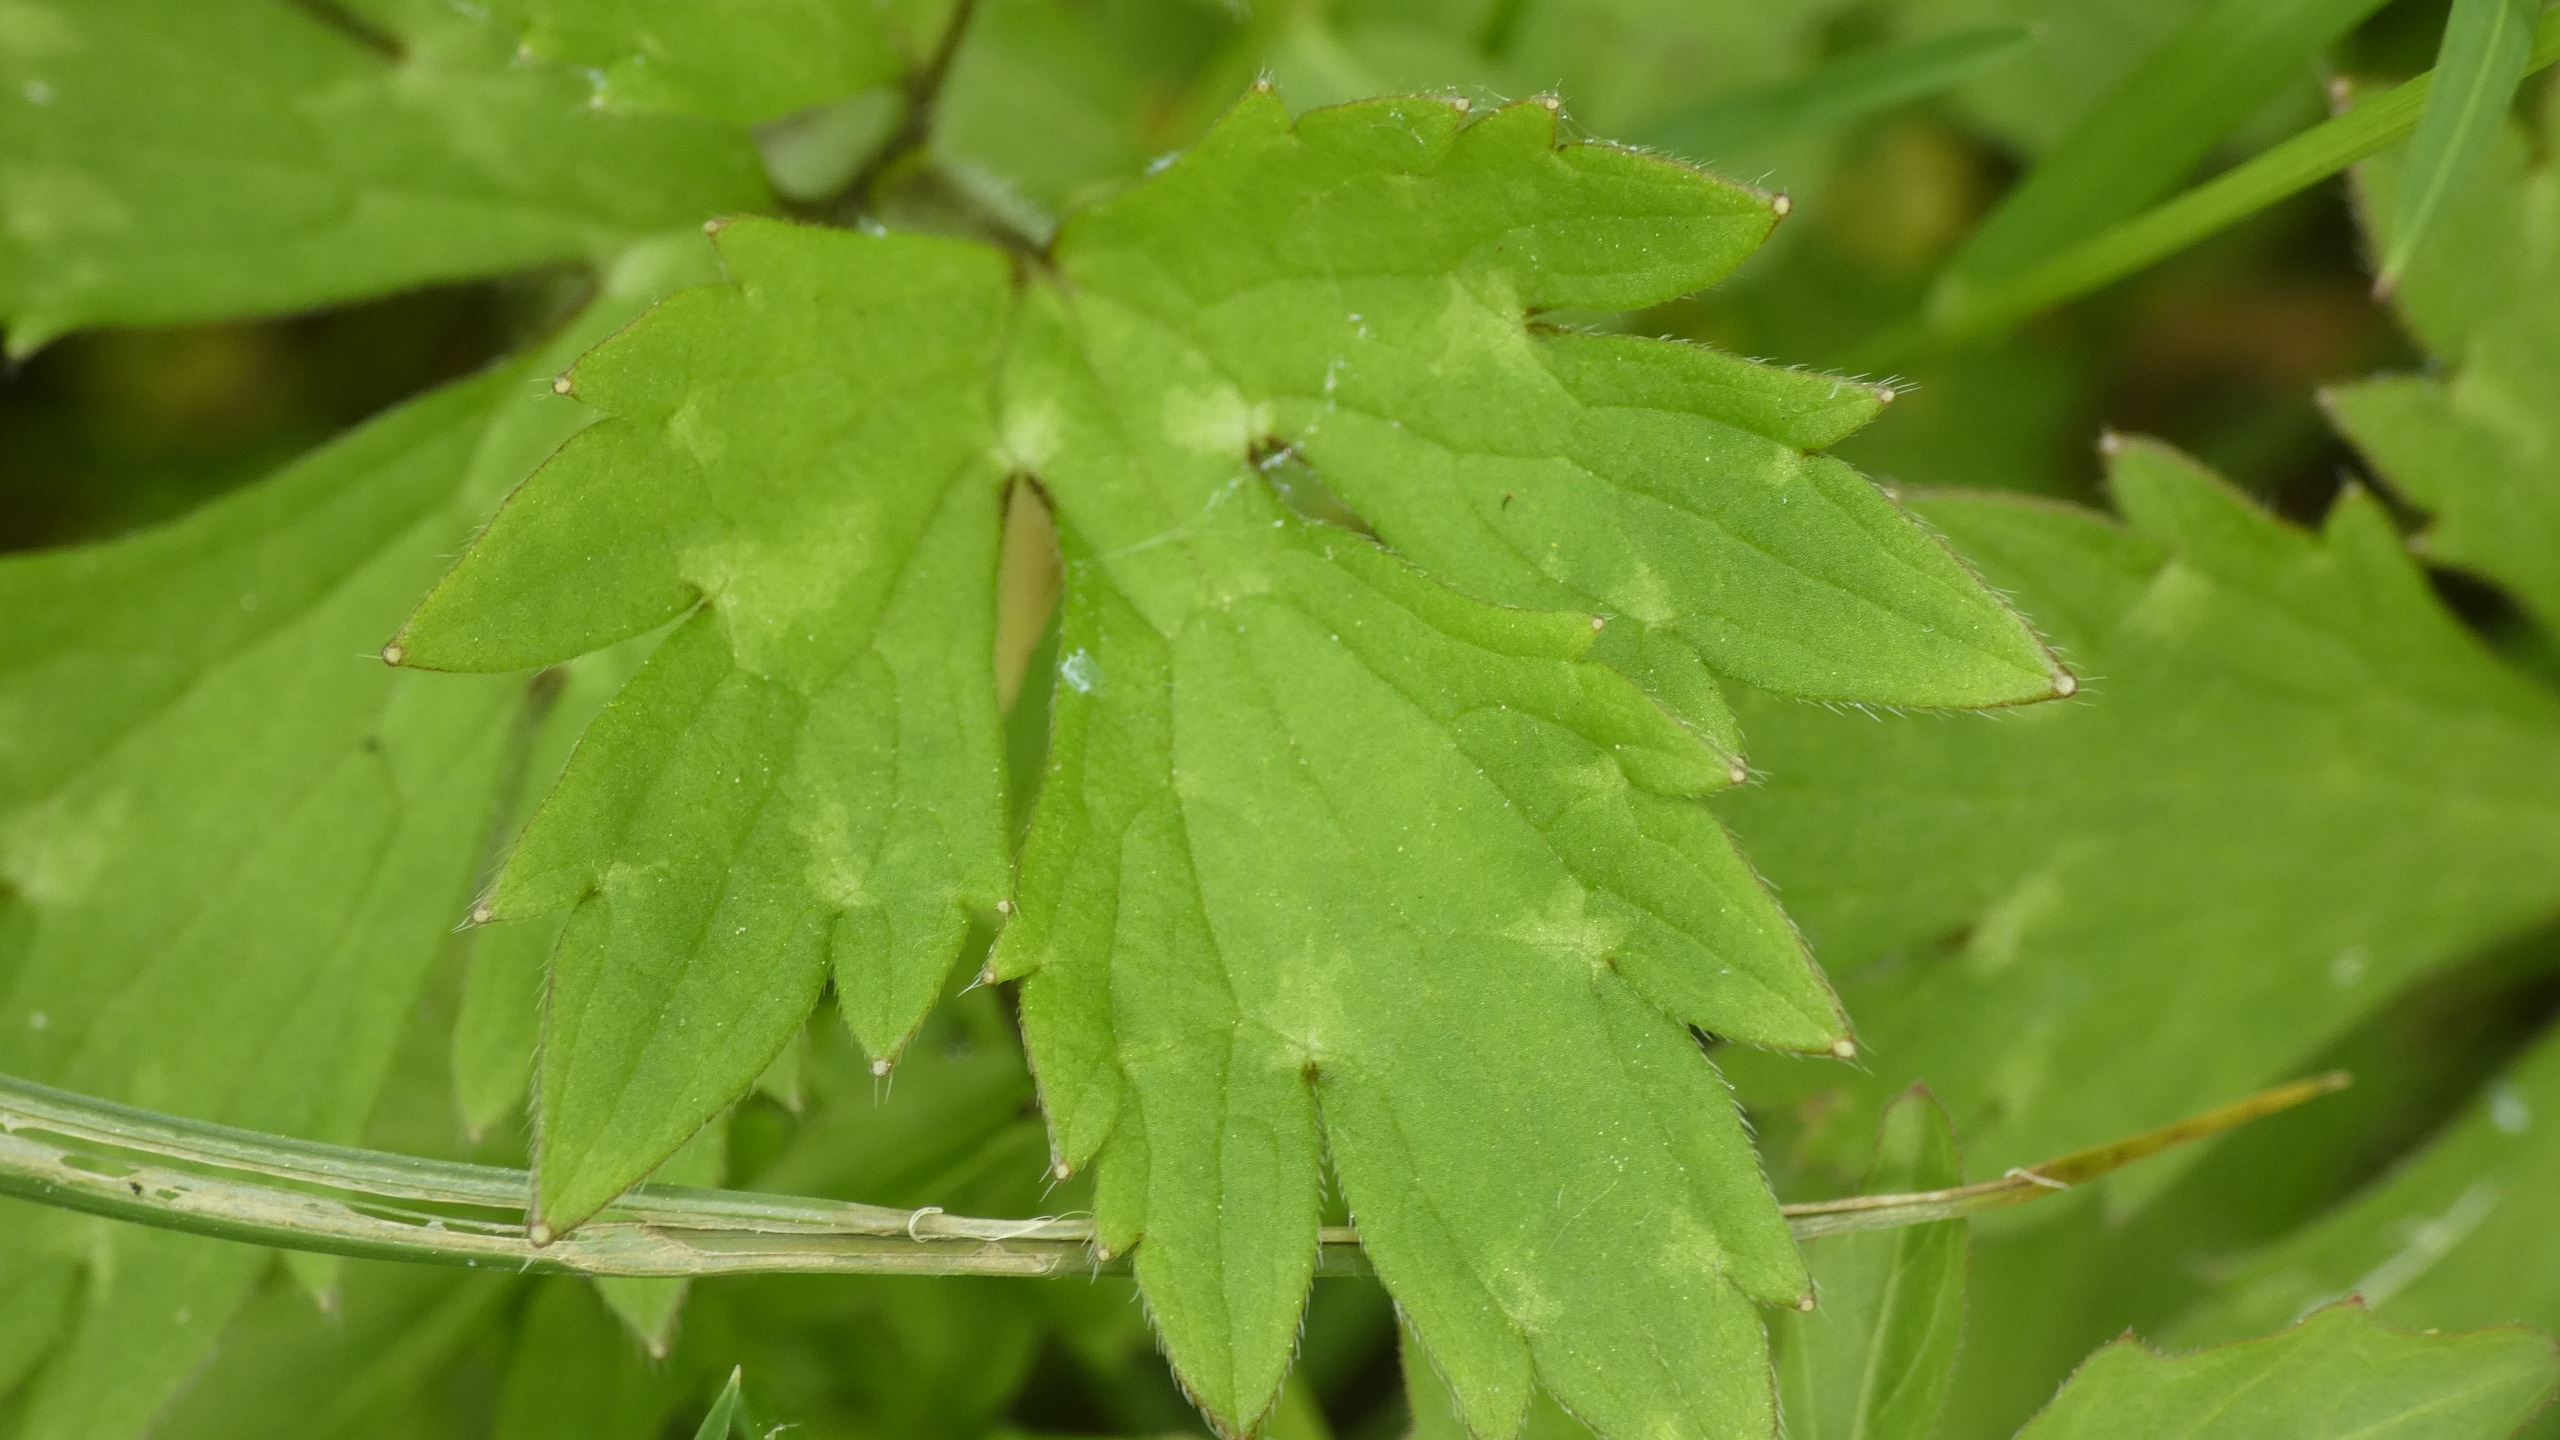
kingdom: Plantae
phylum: Tracheophyta
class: Magnoliopsida
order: Ranunculales
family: Ranunculaceae
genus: Ranunculus
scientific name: Ranunculus repens
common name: Lav ranunkel
